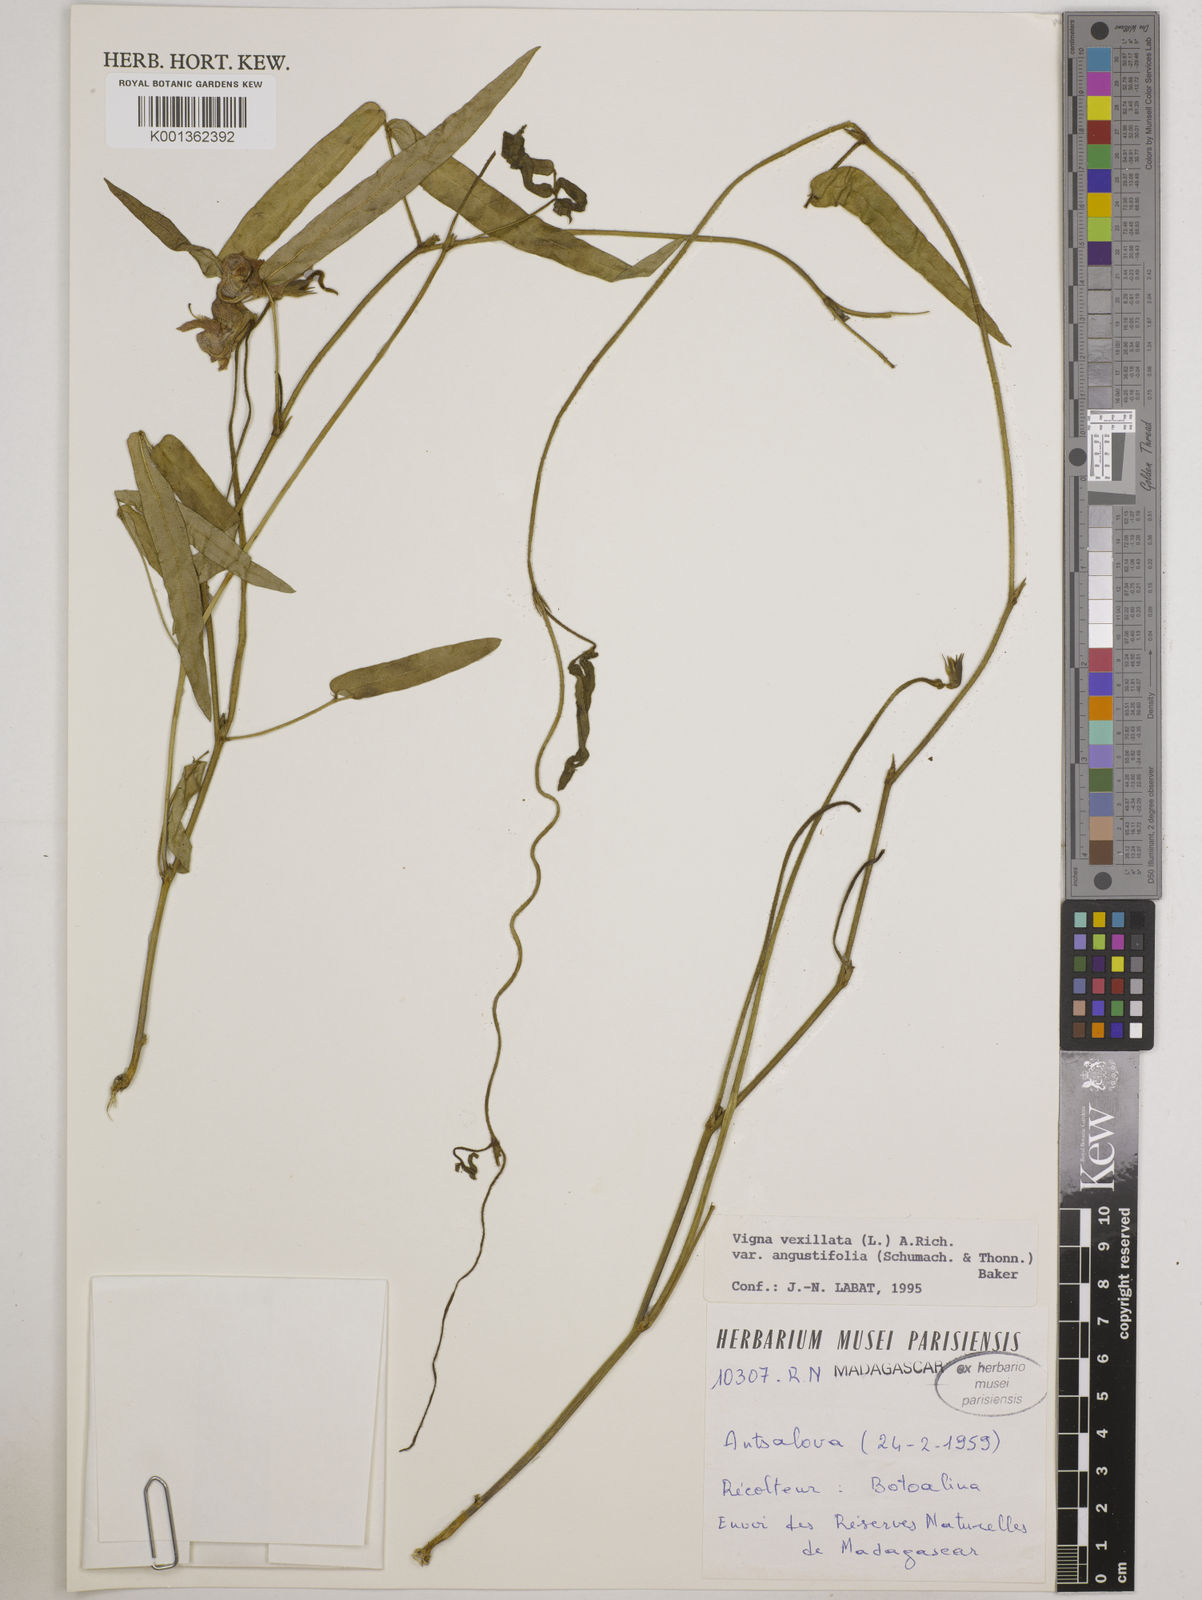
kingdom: Plantae
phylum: Tracheophyta
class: Magnoliopsida
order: Fabales
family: Fabaceae
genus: Vigna
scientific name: Vigna vexillata
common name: Zombi pea
